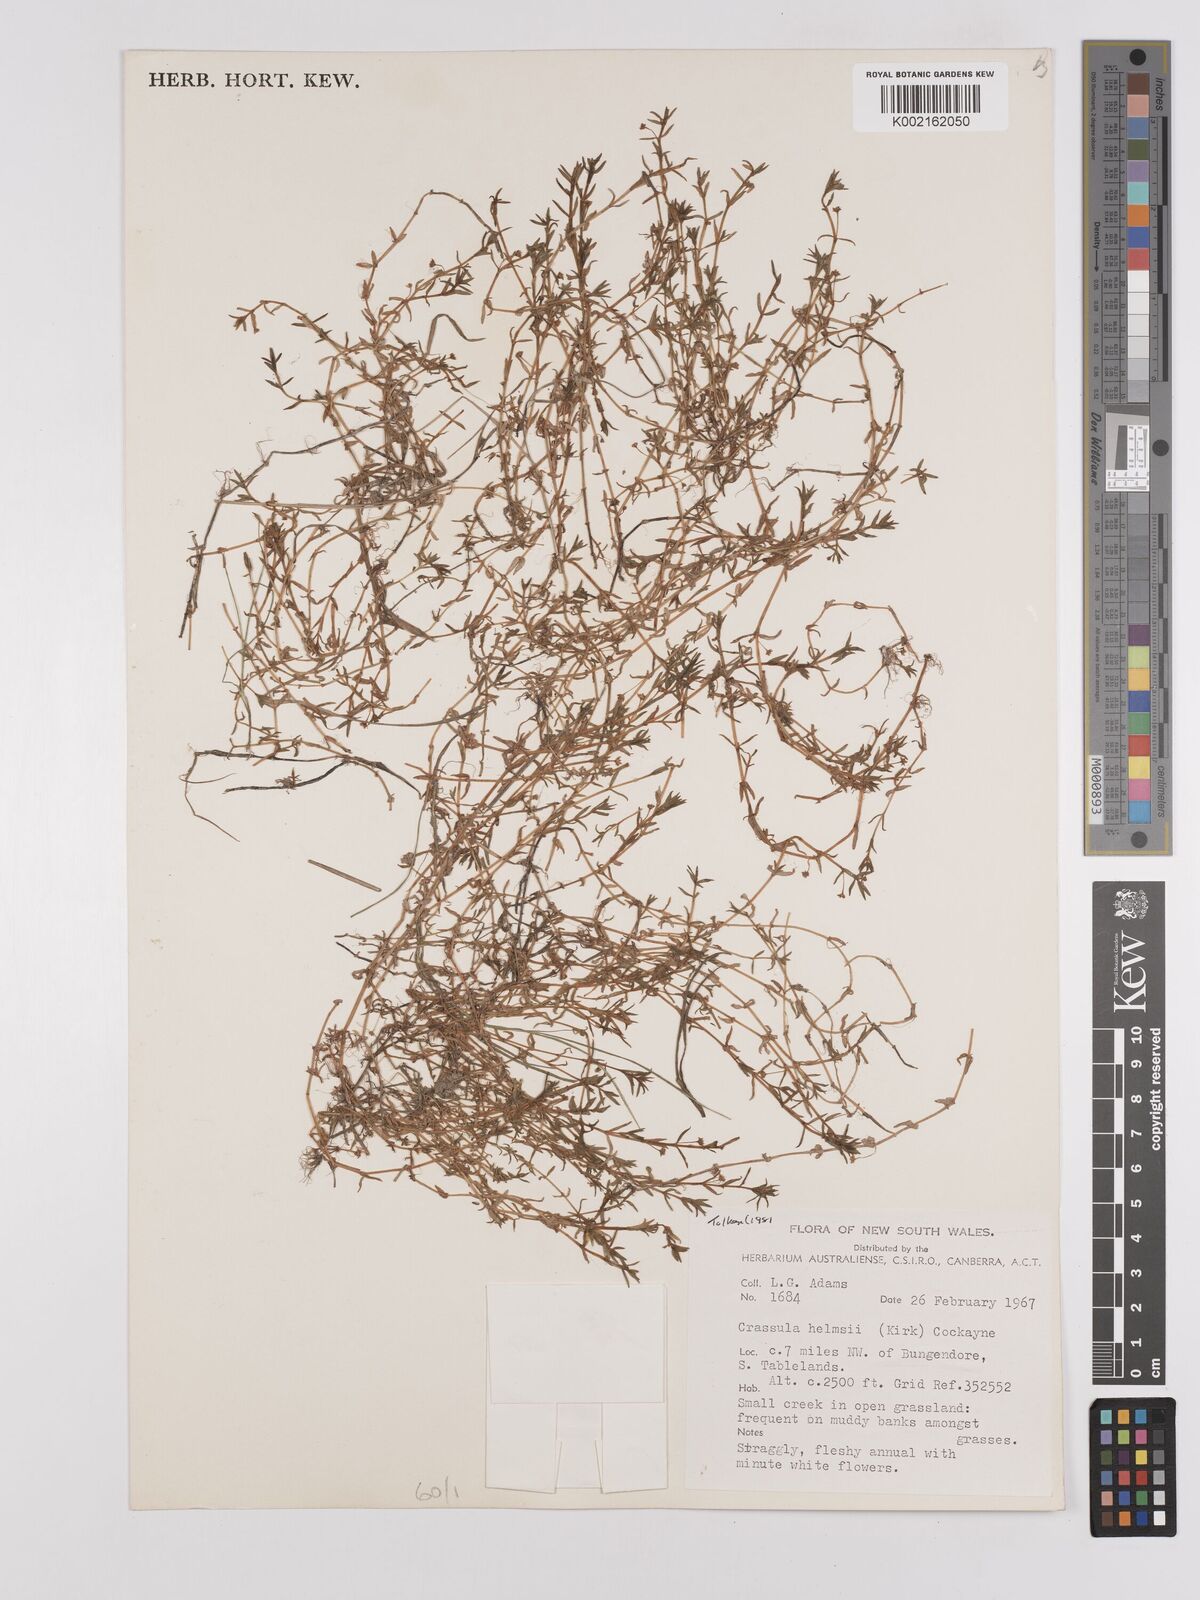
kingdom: Plantae
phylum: Tracheophyta
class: Magnoliopsida
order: Saxifragales
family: Crassulaceae
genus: Crassula
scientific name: Crassula helmsii
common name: New zealand pigmyweed
